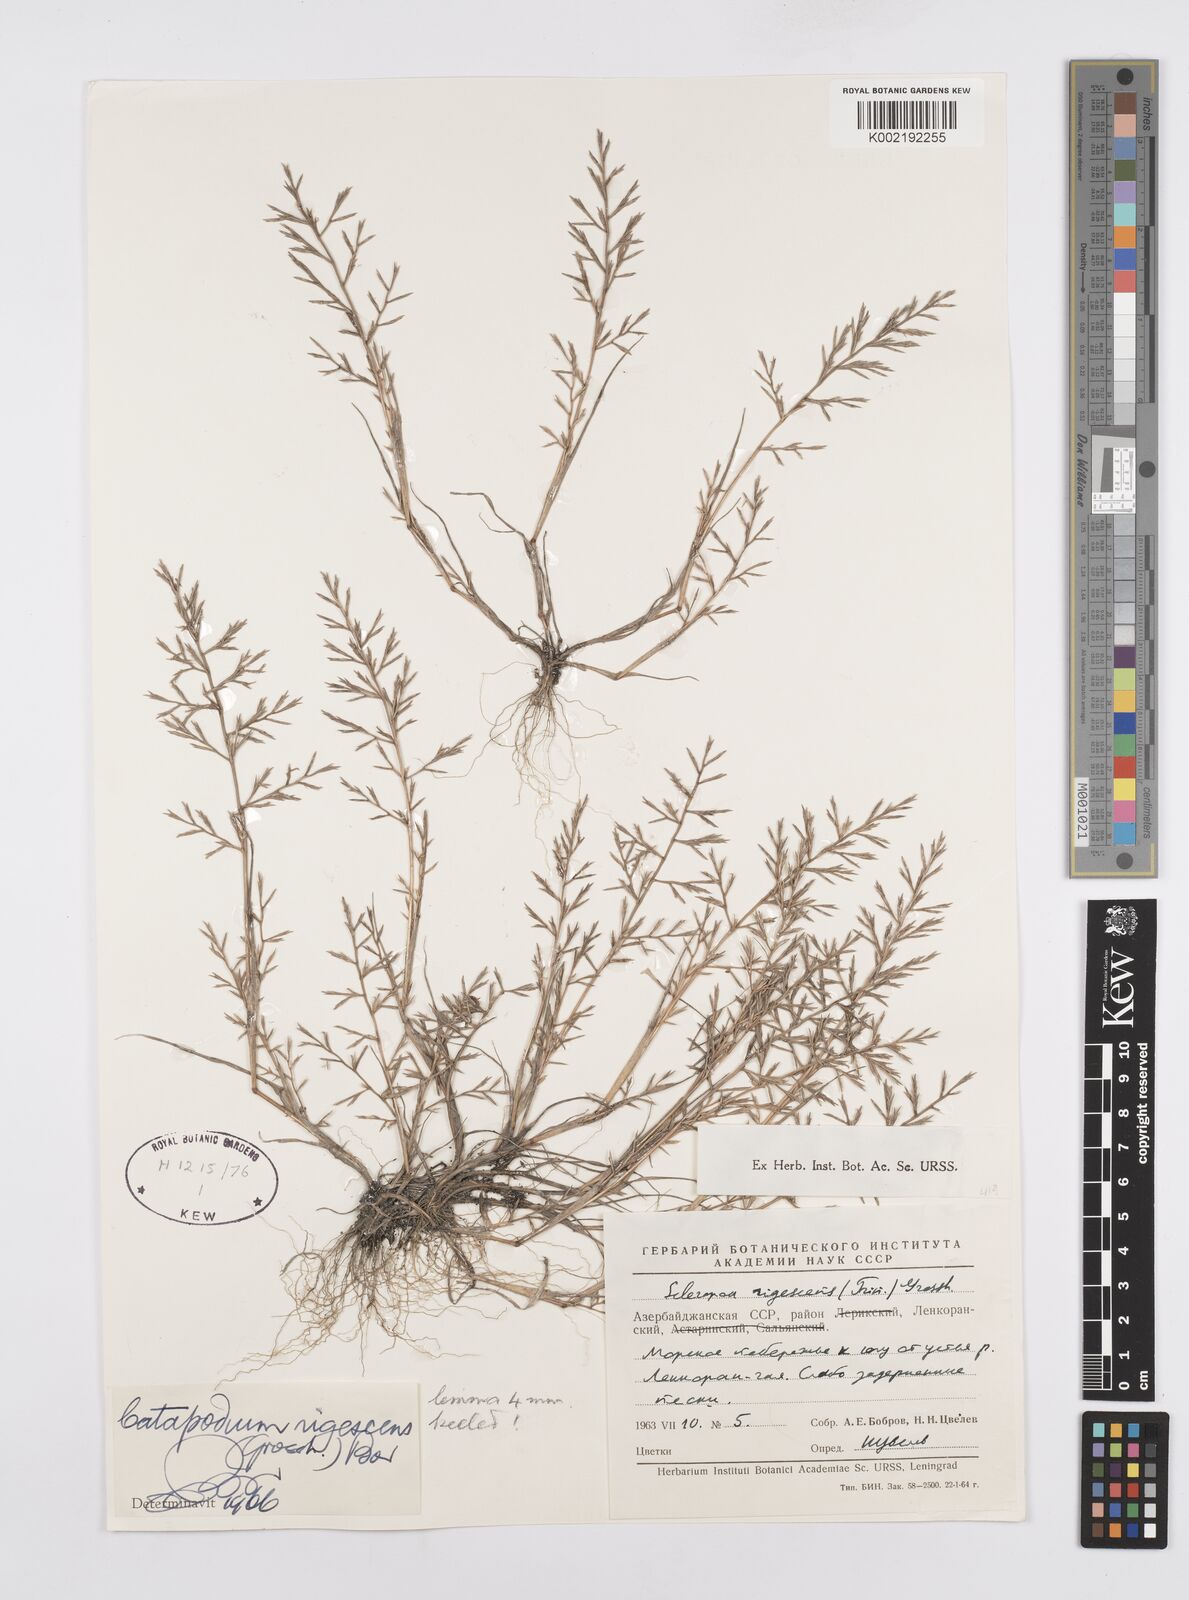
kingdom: Plantae
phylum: Tracheophyta
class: Liliopsida
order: Poales
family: Poaceae
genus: Cutandia
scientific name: Cutandia rigescens
